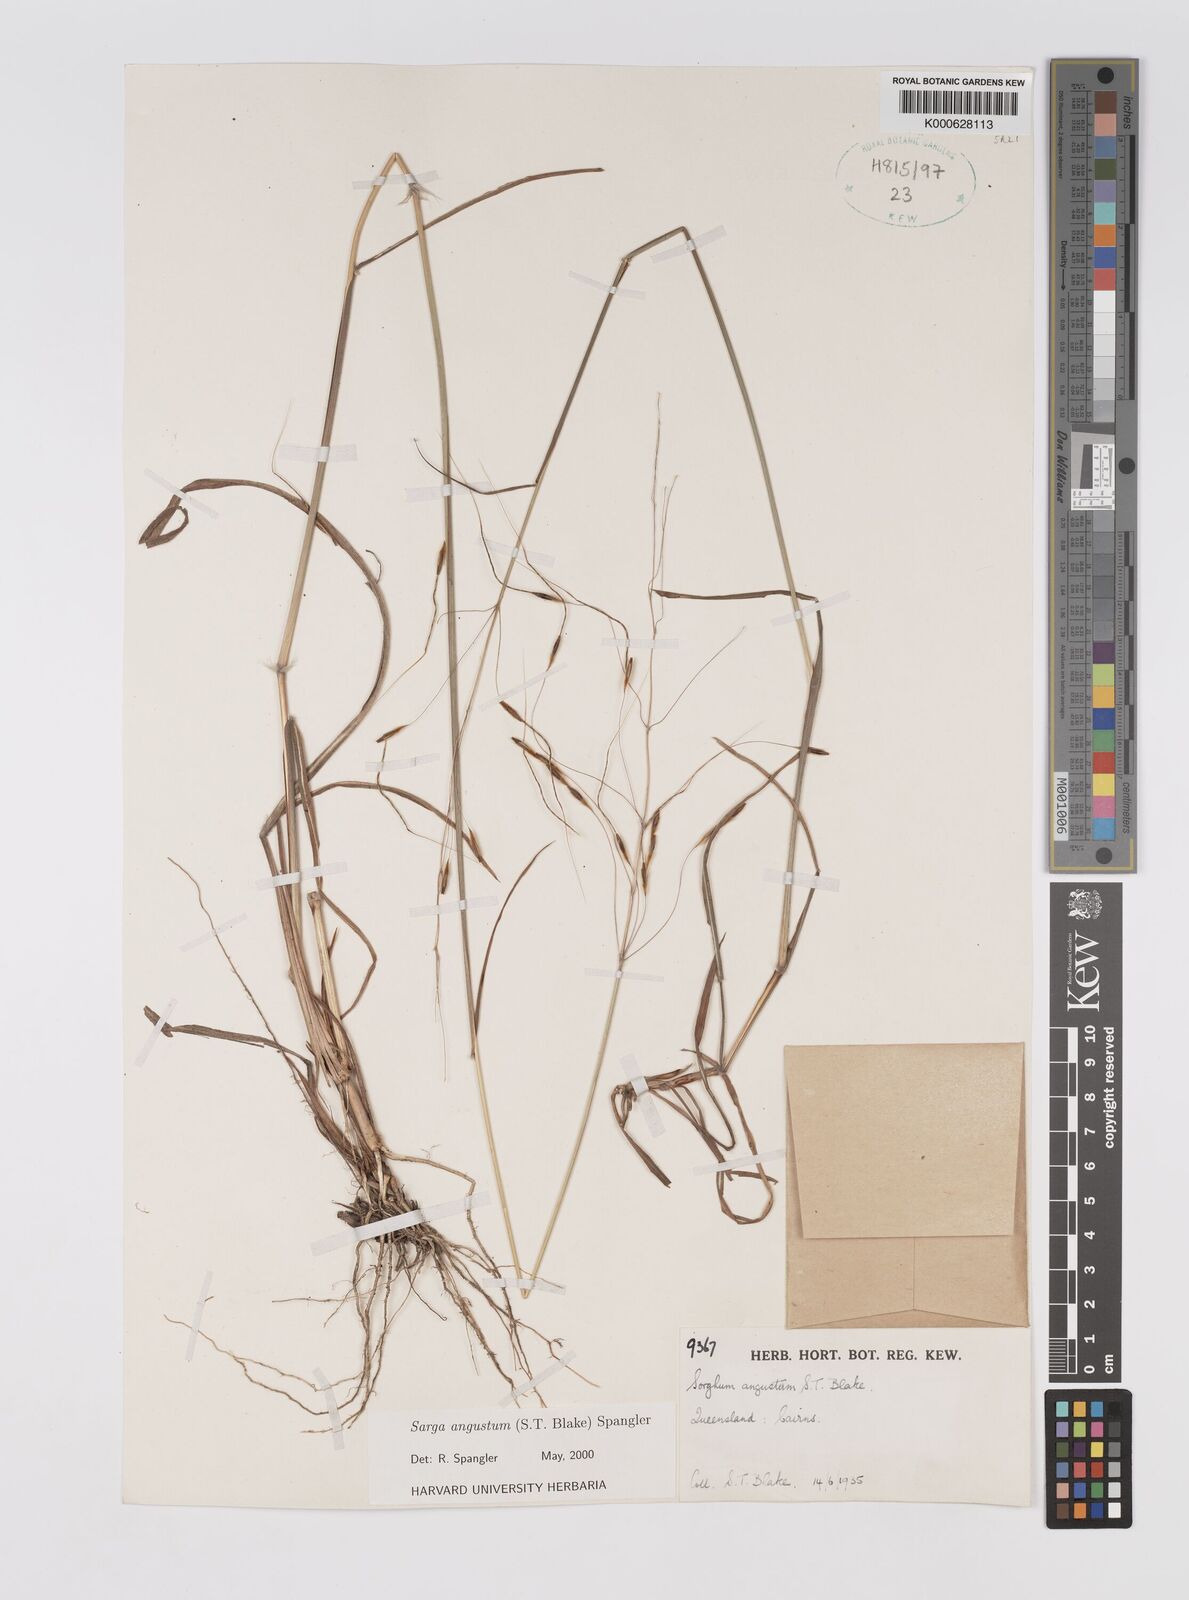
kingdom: Plantae
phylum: Tracheophyta
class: Liliopsida
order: Poales
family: Poaceae
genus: Sarga
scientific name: Sarga angusta
